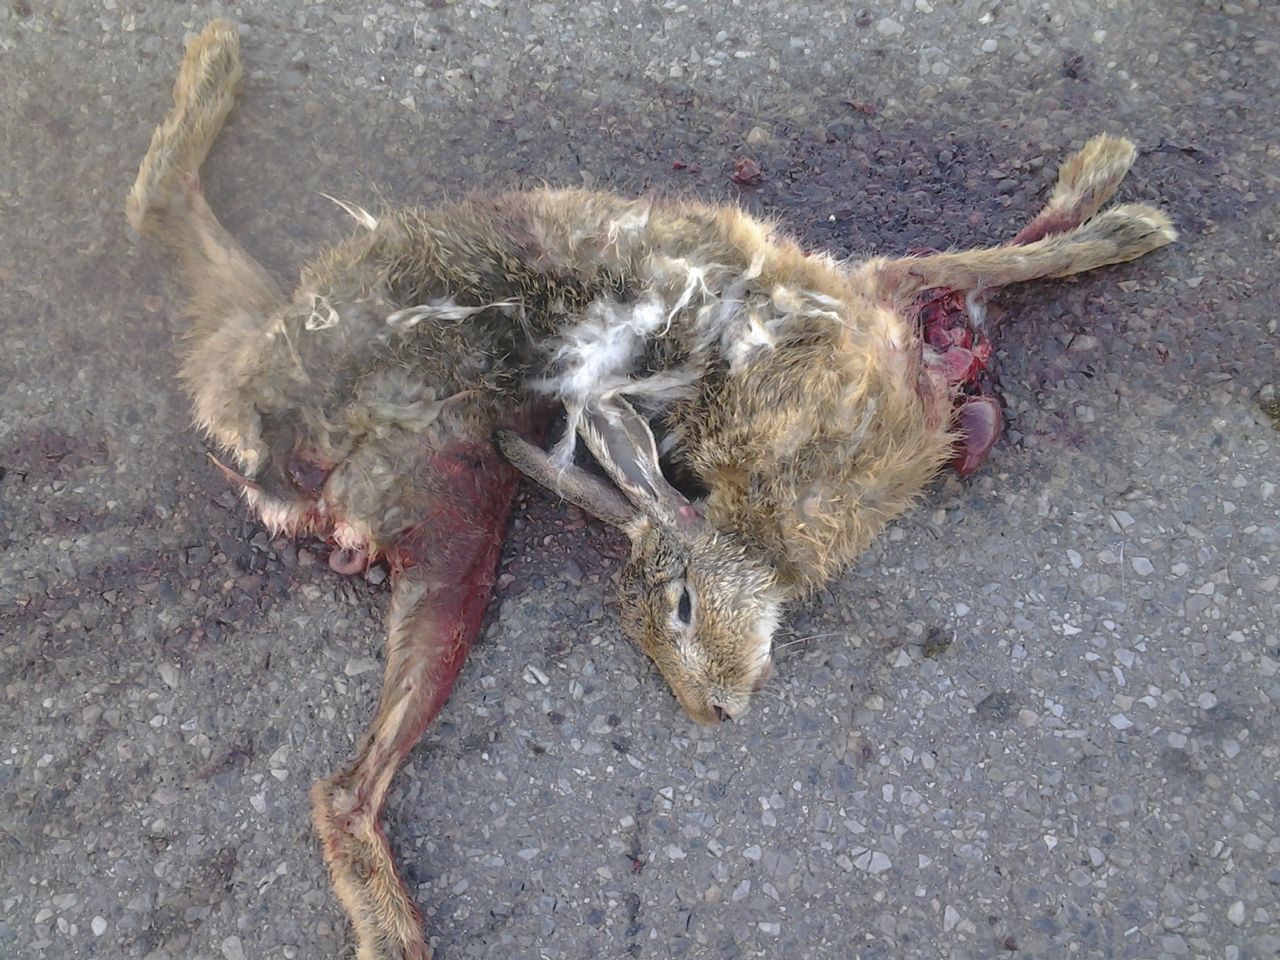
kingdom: Animalia
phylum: Chordata
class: Mammalia
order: Lagomorpha
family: Leporidae
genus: Lepus
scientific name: Lepus europaeus
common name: European hare
